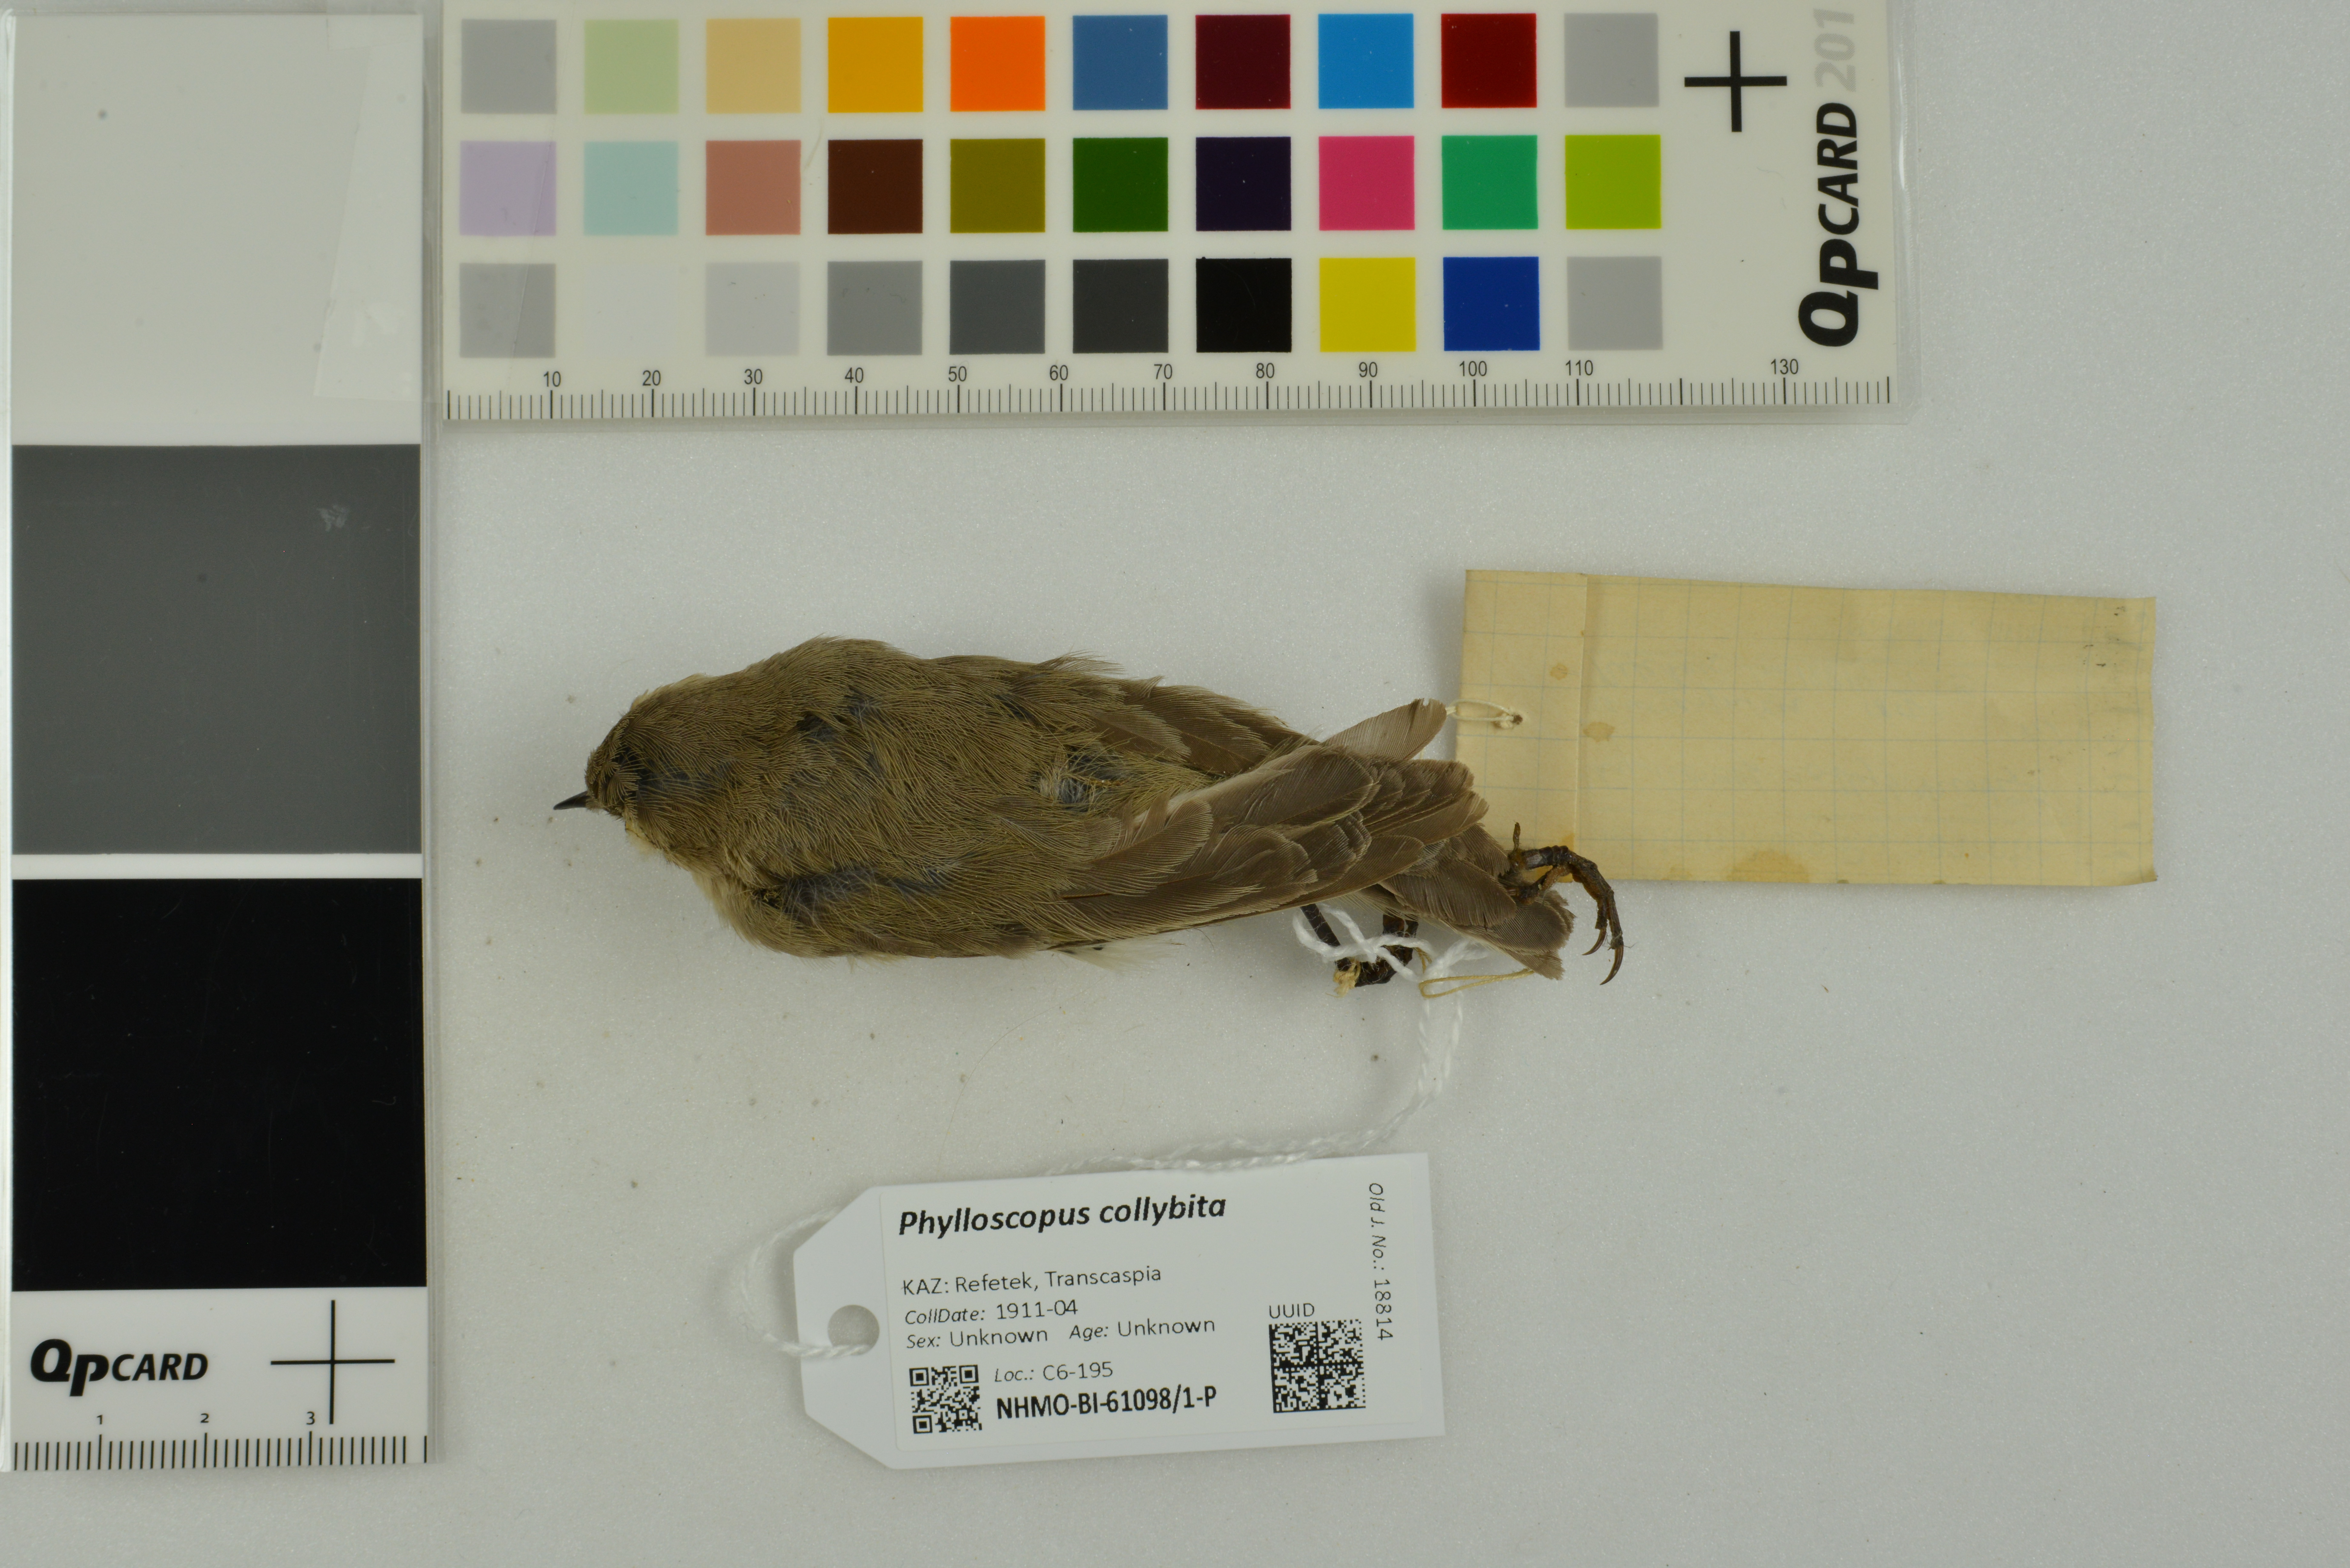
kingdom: Animalia
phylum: Chordata
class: Aves
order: Passeriformes
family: Phylloscopidae
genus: Phylloscopus
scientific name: Phylloscopus collybita
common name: Common chiffchaff
